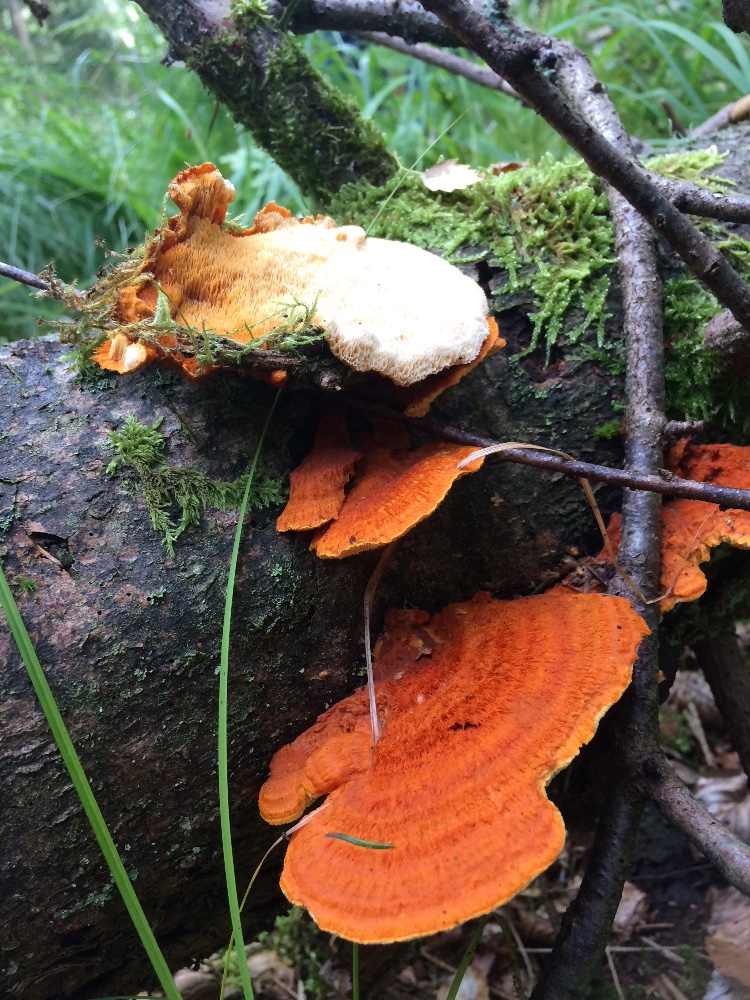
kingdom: Fungi
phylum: Basidiomycota
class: Agaricomycetes
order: Polyporales
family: Pycnoporellaceae
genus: Pycnoporellus
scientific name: Pycnoporellus fulgens
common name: flammeporesvamp
